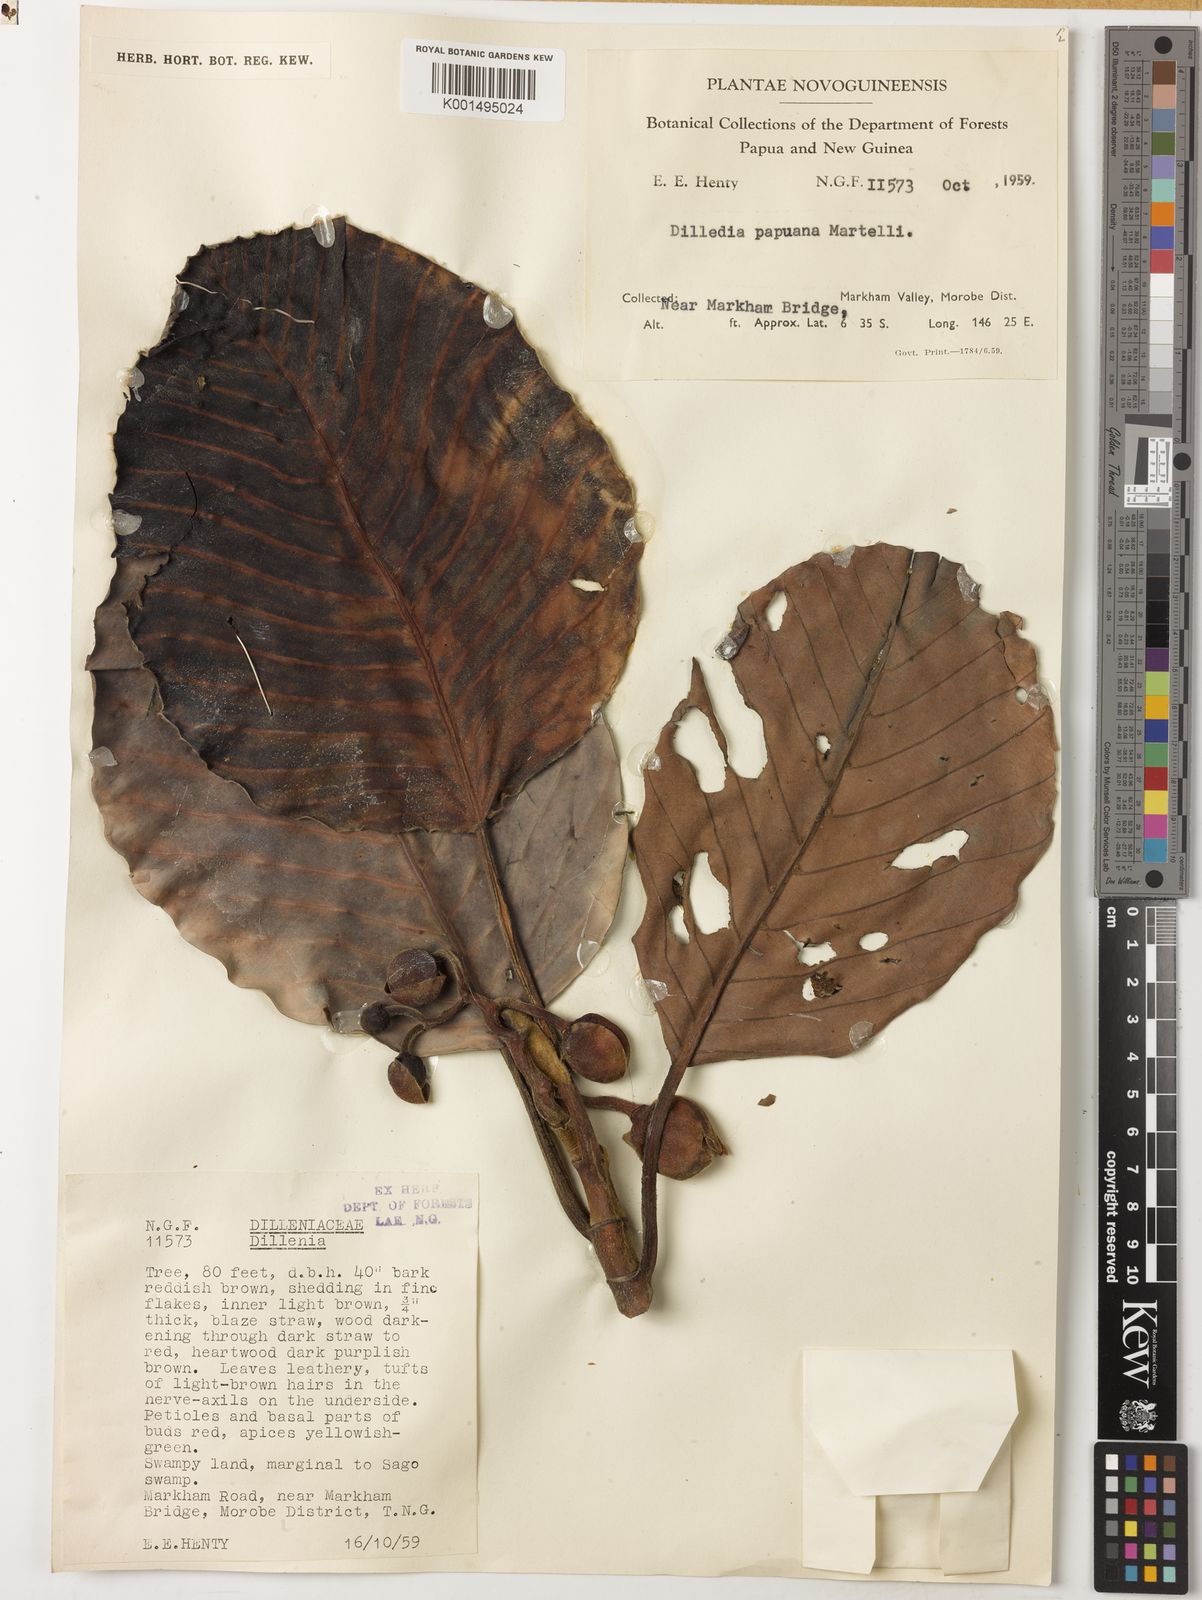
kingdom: Plantae
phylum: Tracheophyta
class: Magnoliopsida
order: Dilleniales
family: Dilleniaceae
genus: Dillenia
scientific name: Dillenia papuana
